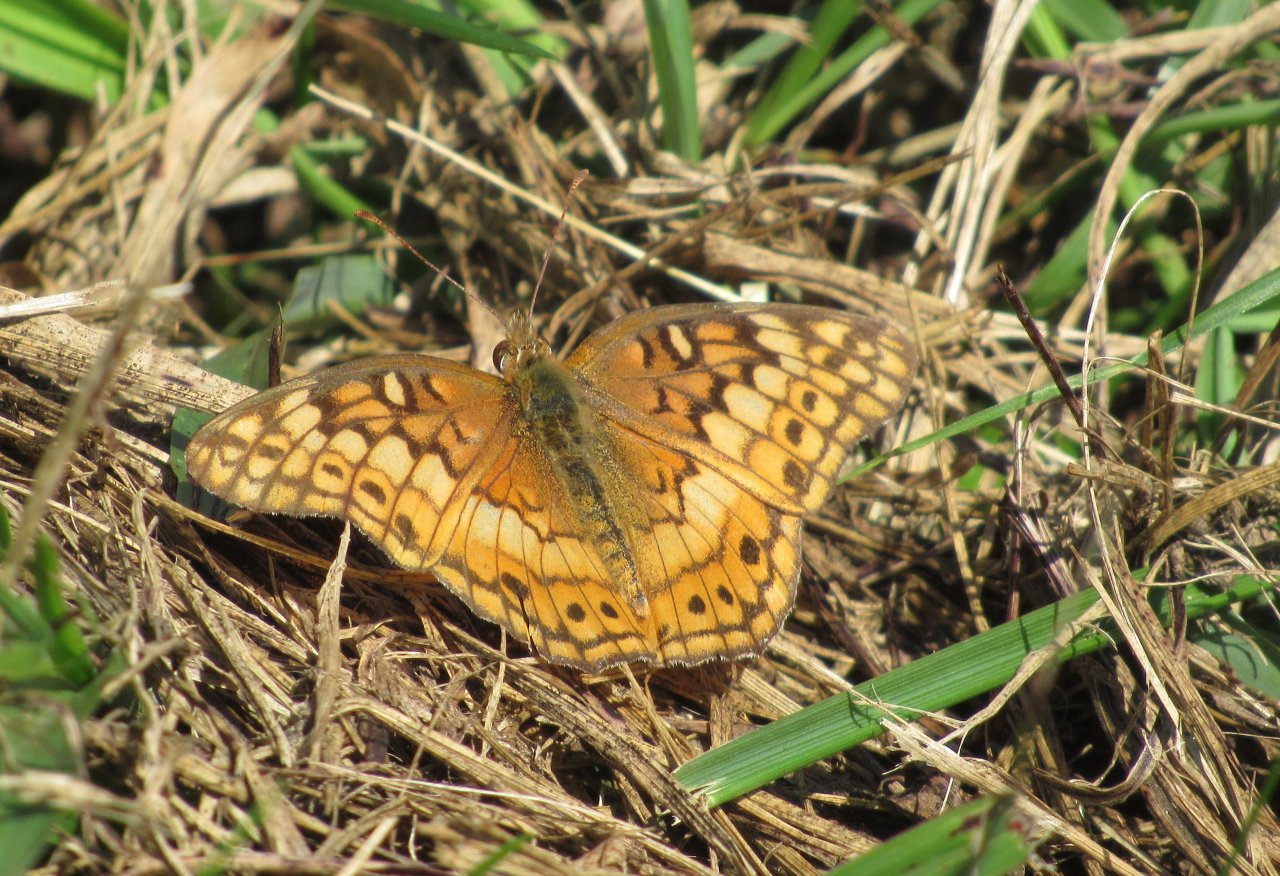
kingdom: Animalia
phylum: Arthropoda
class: Insecta
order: Lepidoptera
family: Nymphalidae
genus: Euptoieta
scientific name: Euptoieta claudia
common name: Variegated Fritillary
